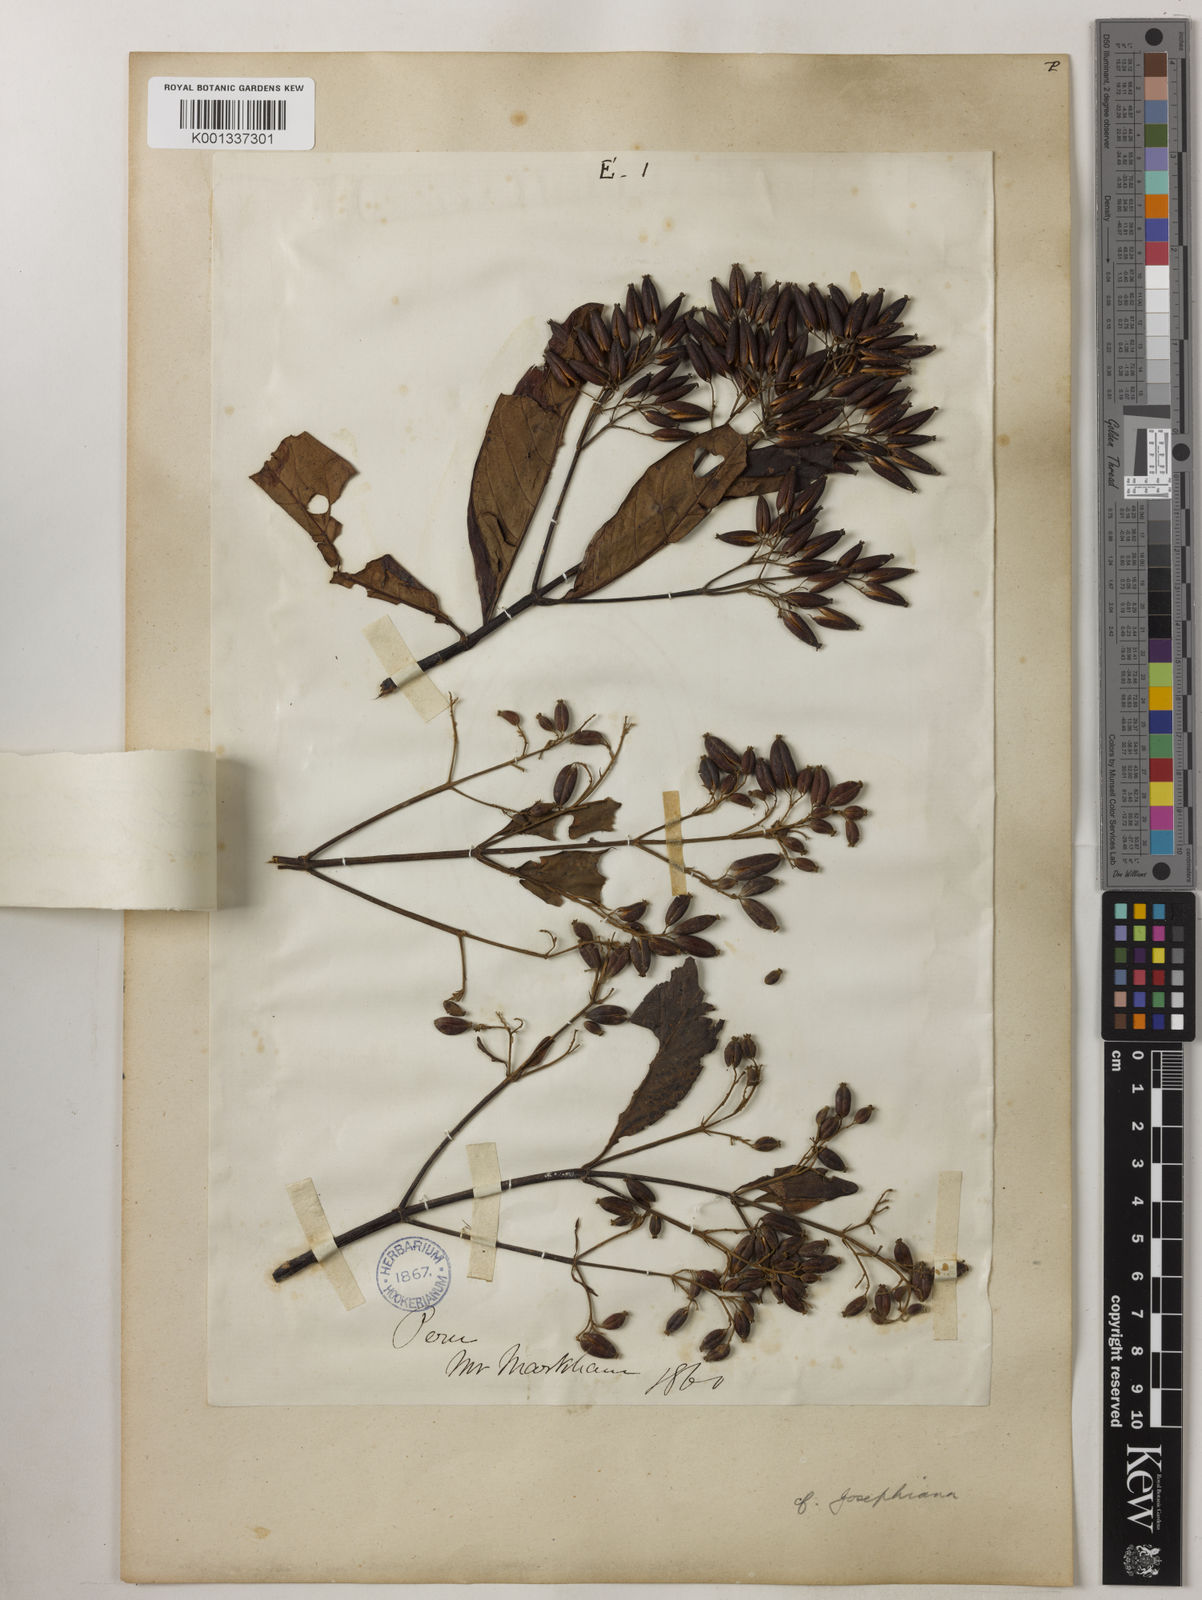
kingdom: Plantae
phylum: Tracheophyta
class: Magnoliopsida
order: Gentianales
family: Rubiaceae
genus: Cinchona
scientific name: Cinchona calisaya
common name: Ledgerbark
